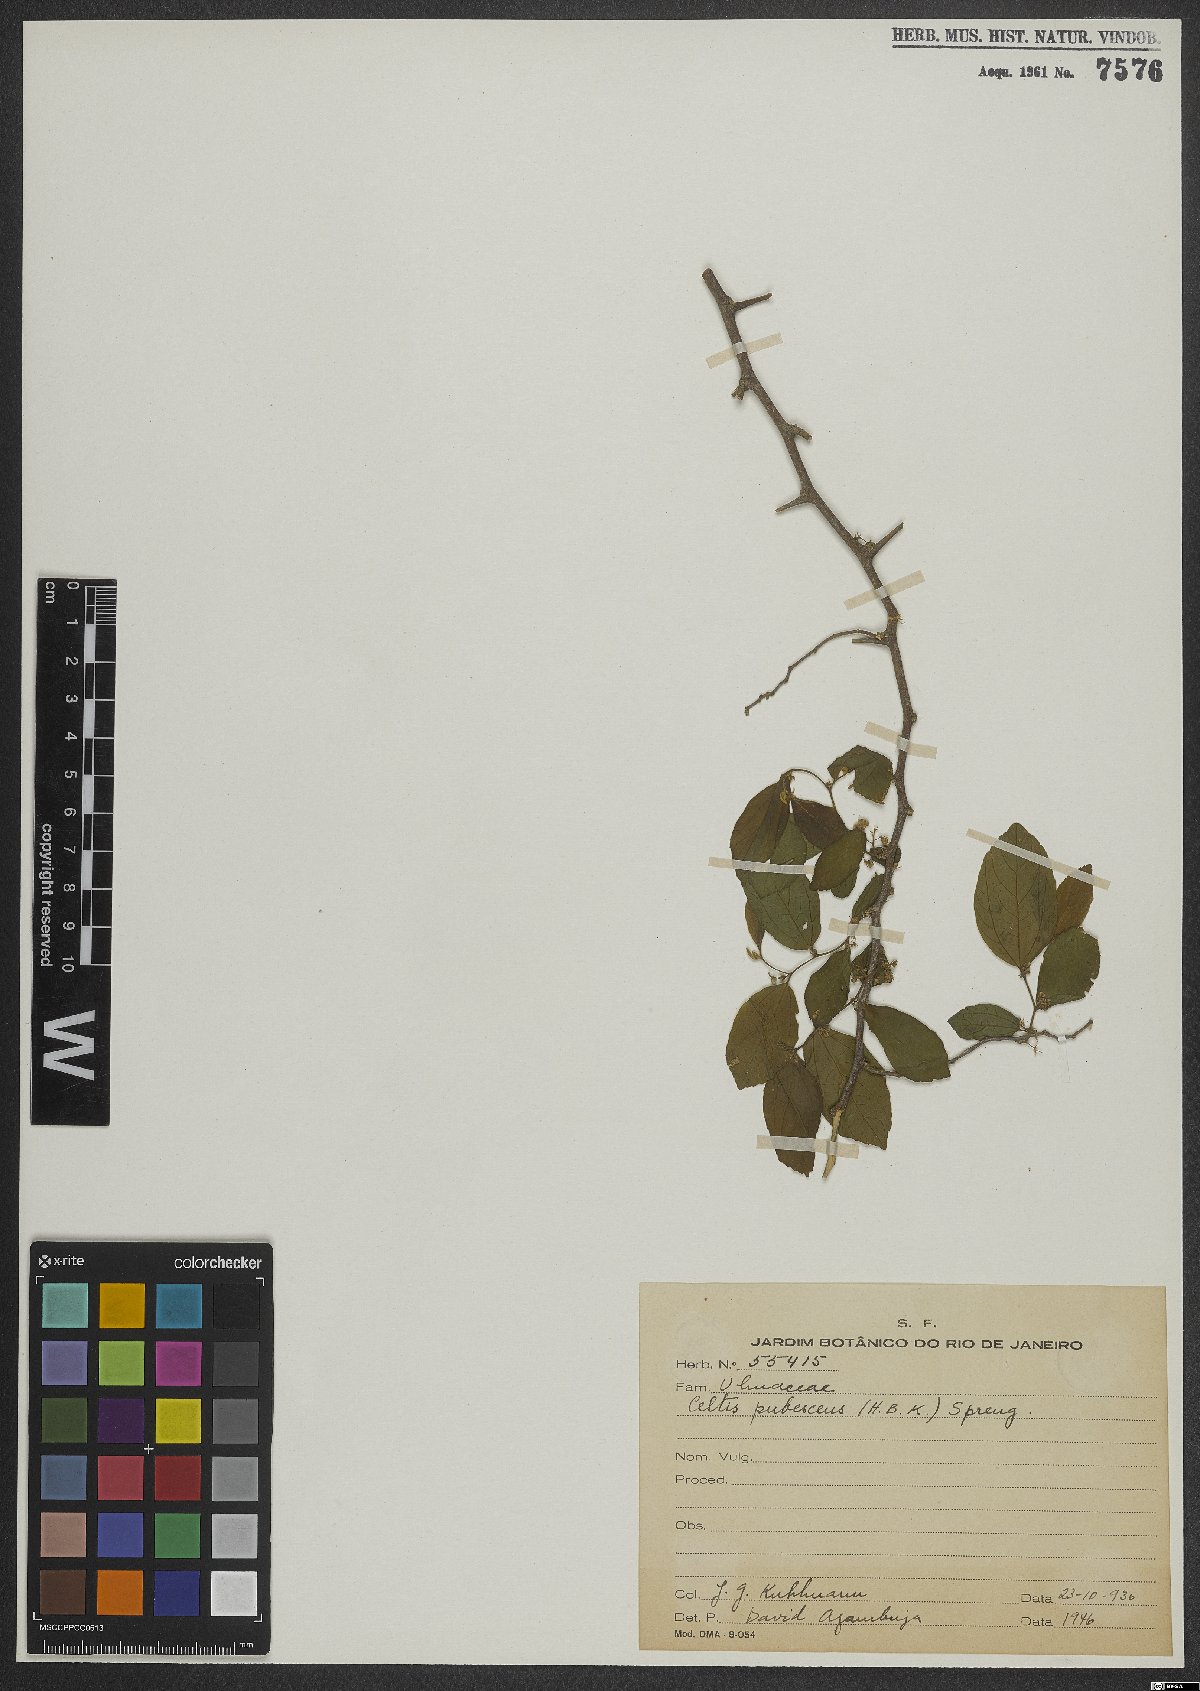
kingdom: Plantae
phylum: Tracheophyta
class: Magnoliopsida
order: Rosales
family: Cannabaceae
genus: Celtis
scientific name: Celtis iguanaea
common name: Iguana hackberry
